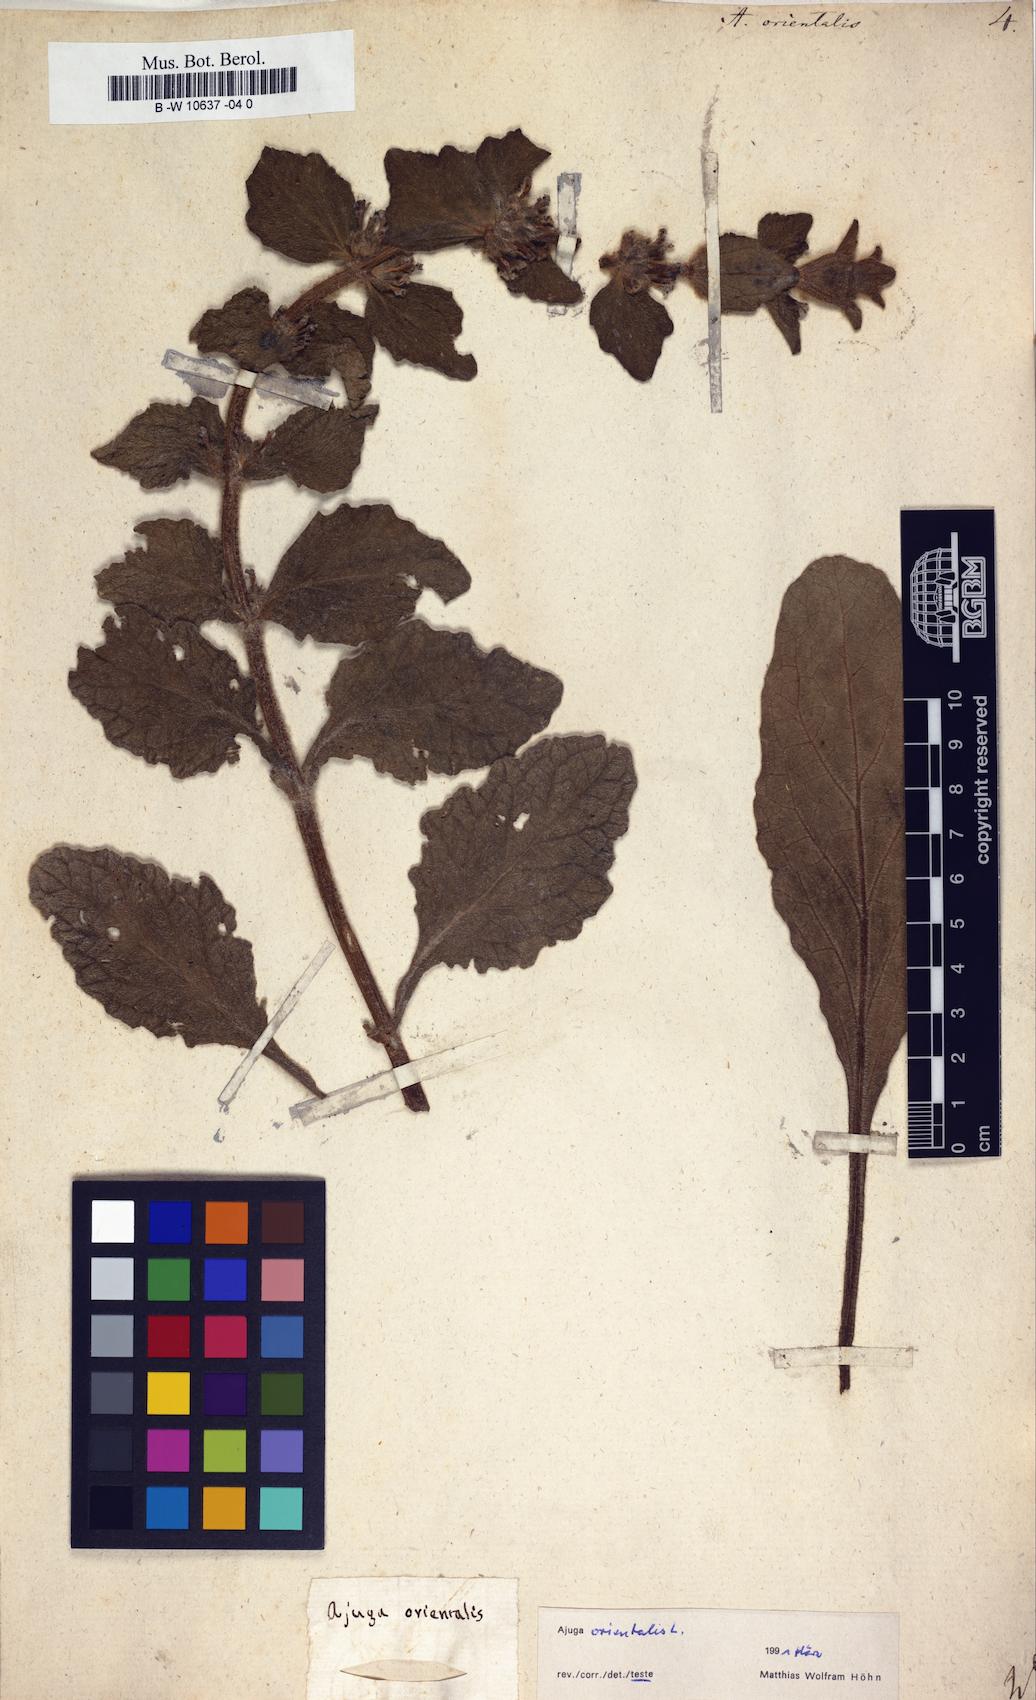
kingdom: Plantae
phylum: Tracheophyta
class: Magnoliopsida
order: Lamiales
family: Lamiaceae
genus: Ajuga
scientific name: Ajuga orientalis
